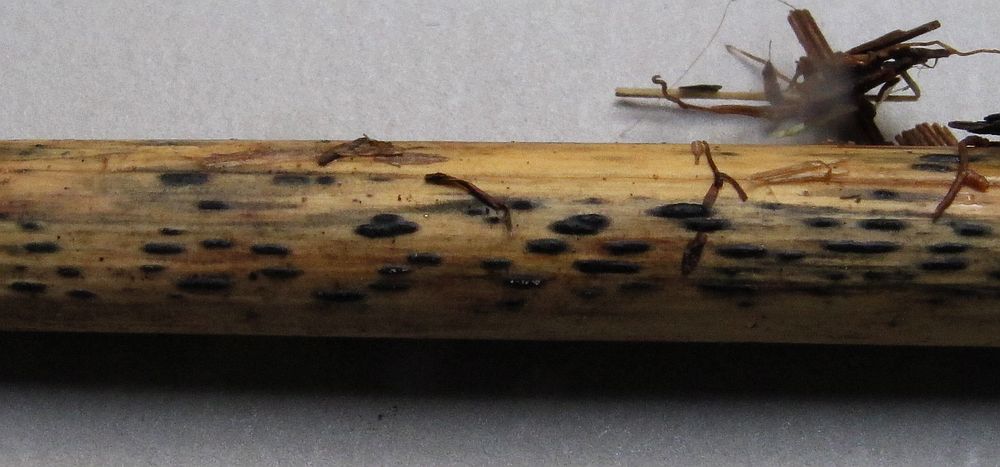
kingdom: Fungi
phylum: Ascomycota
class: Dothideomycetes
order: Pleosporales
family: Lentitheciaceae
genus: Setoseptoria
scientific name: Setoseptoria arundinacea
